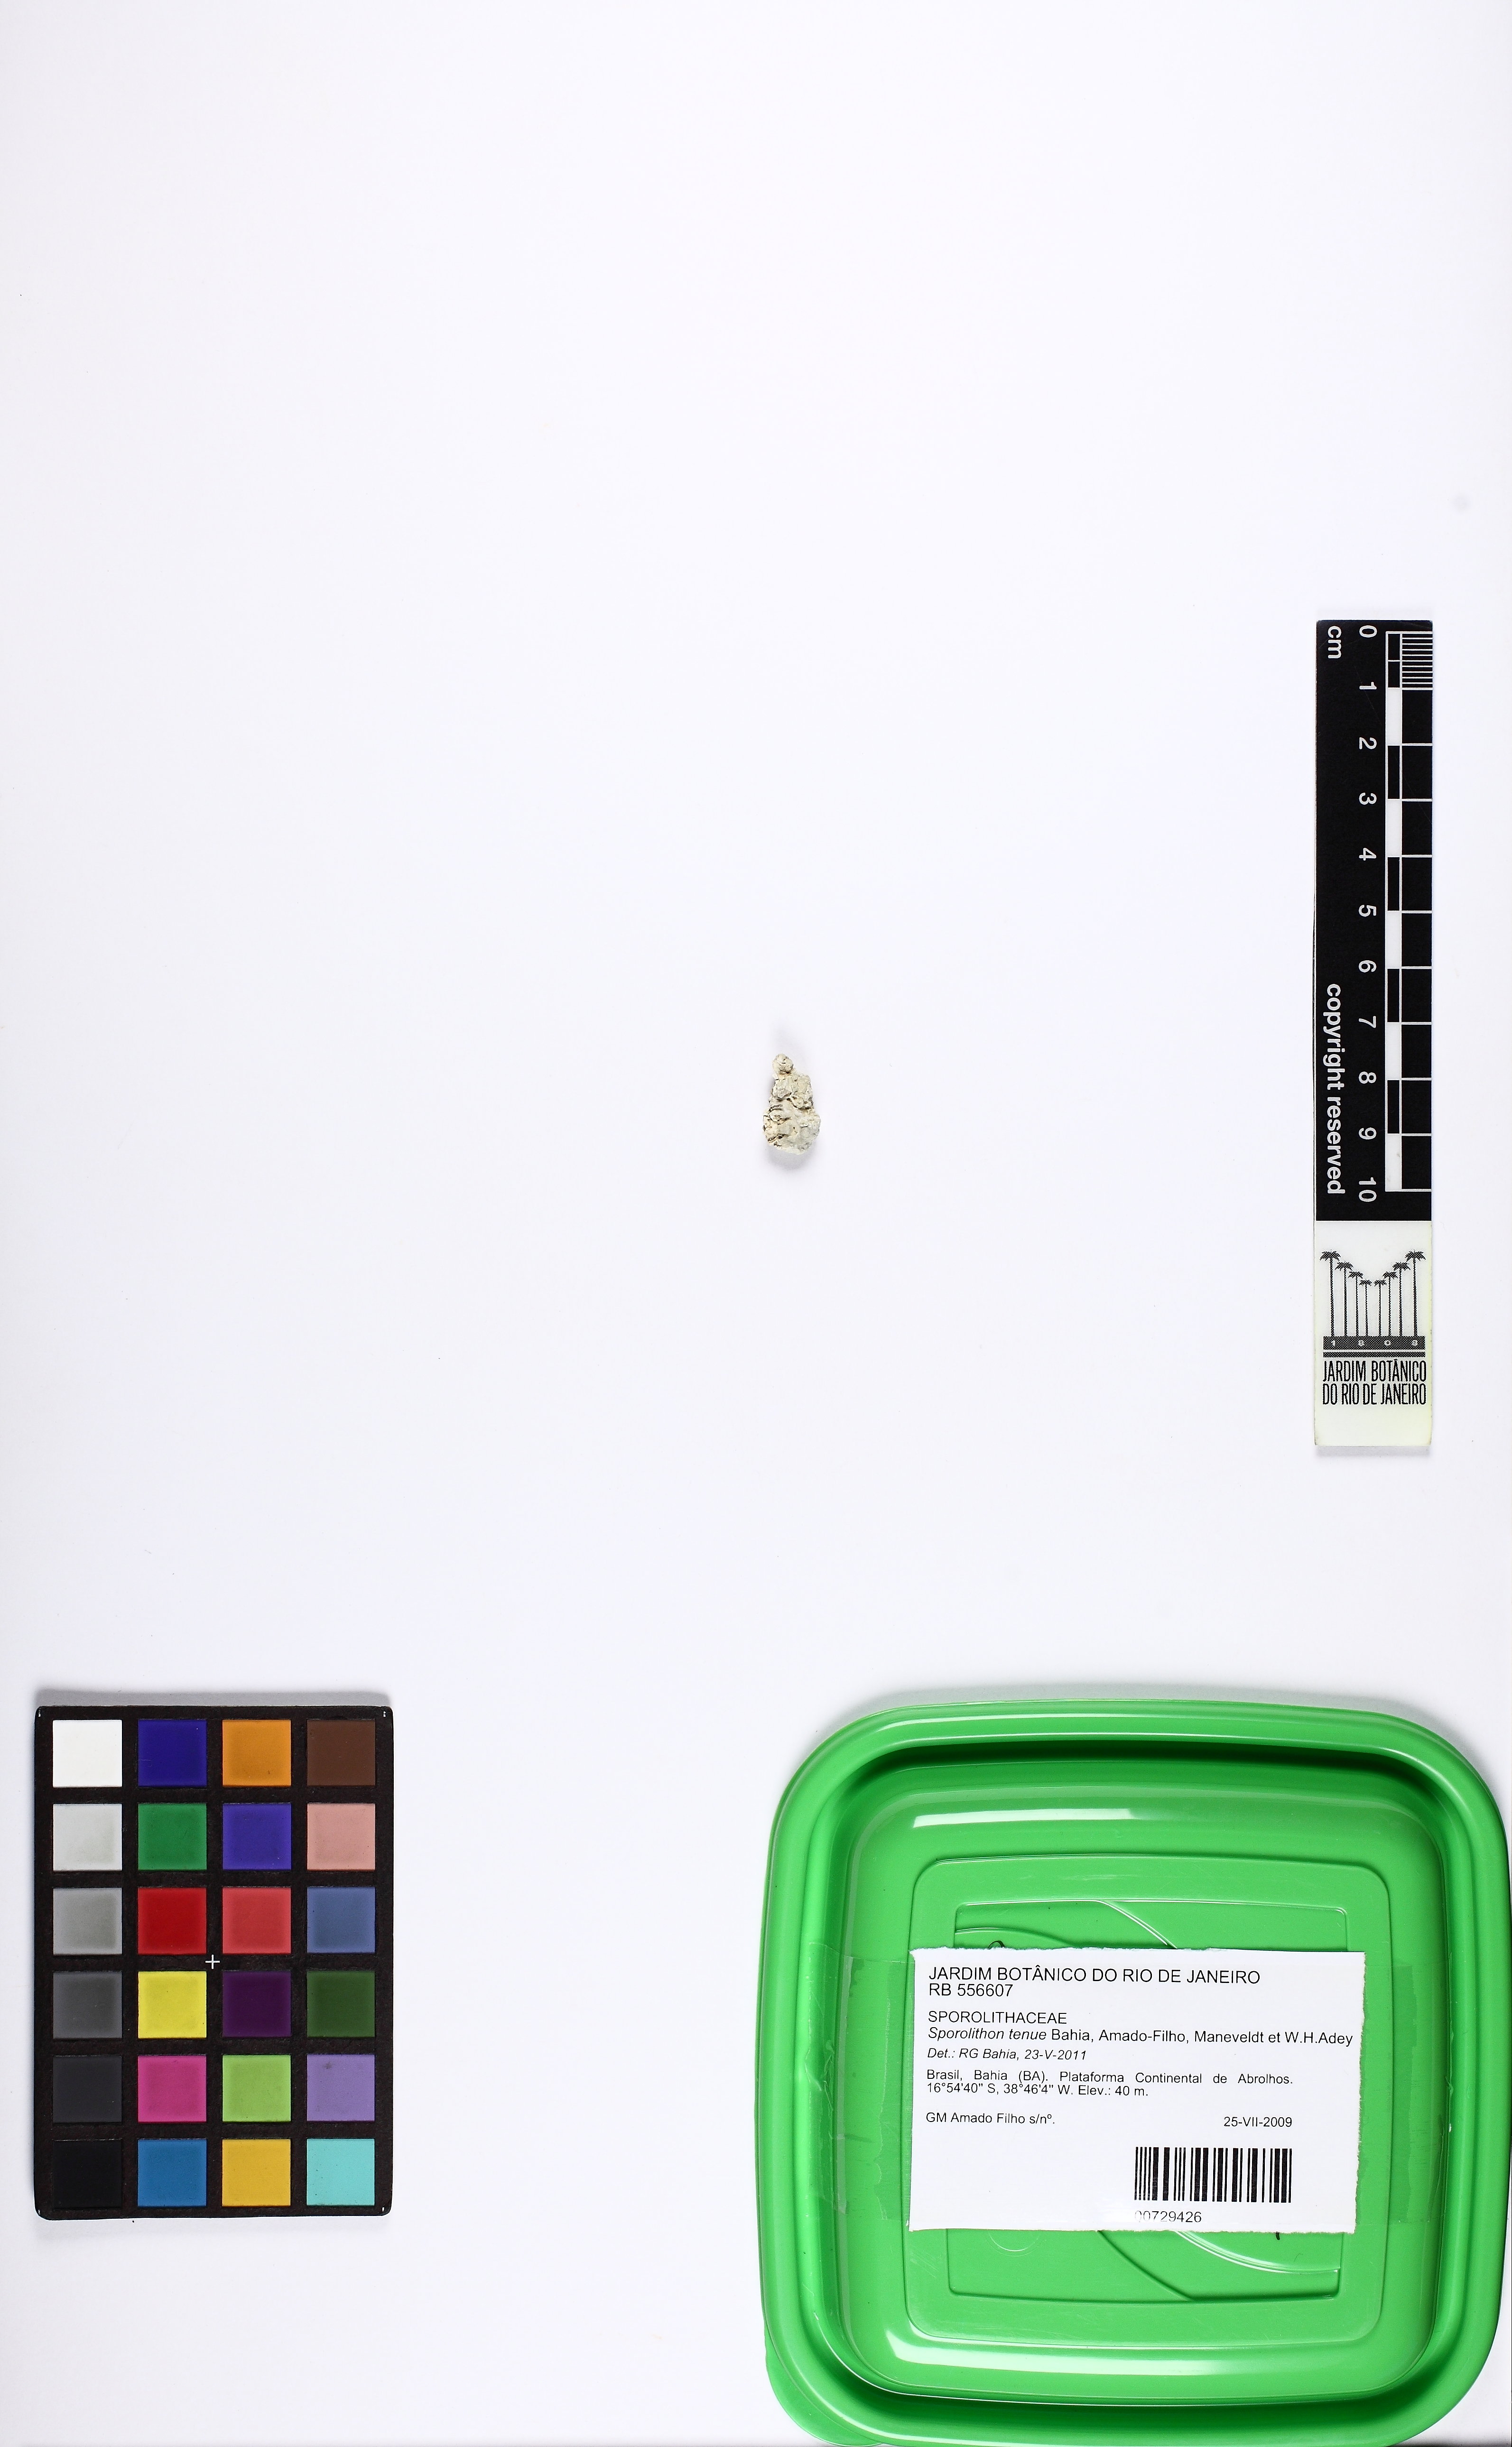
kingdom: Plantae
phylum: Rhodophyta
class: Florideophyceae
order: Corallinales
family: Sporolithaceae
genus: Sporolithon
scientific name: Sporolithon tenue
